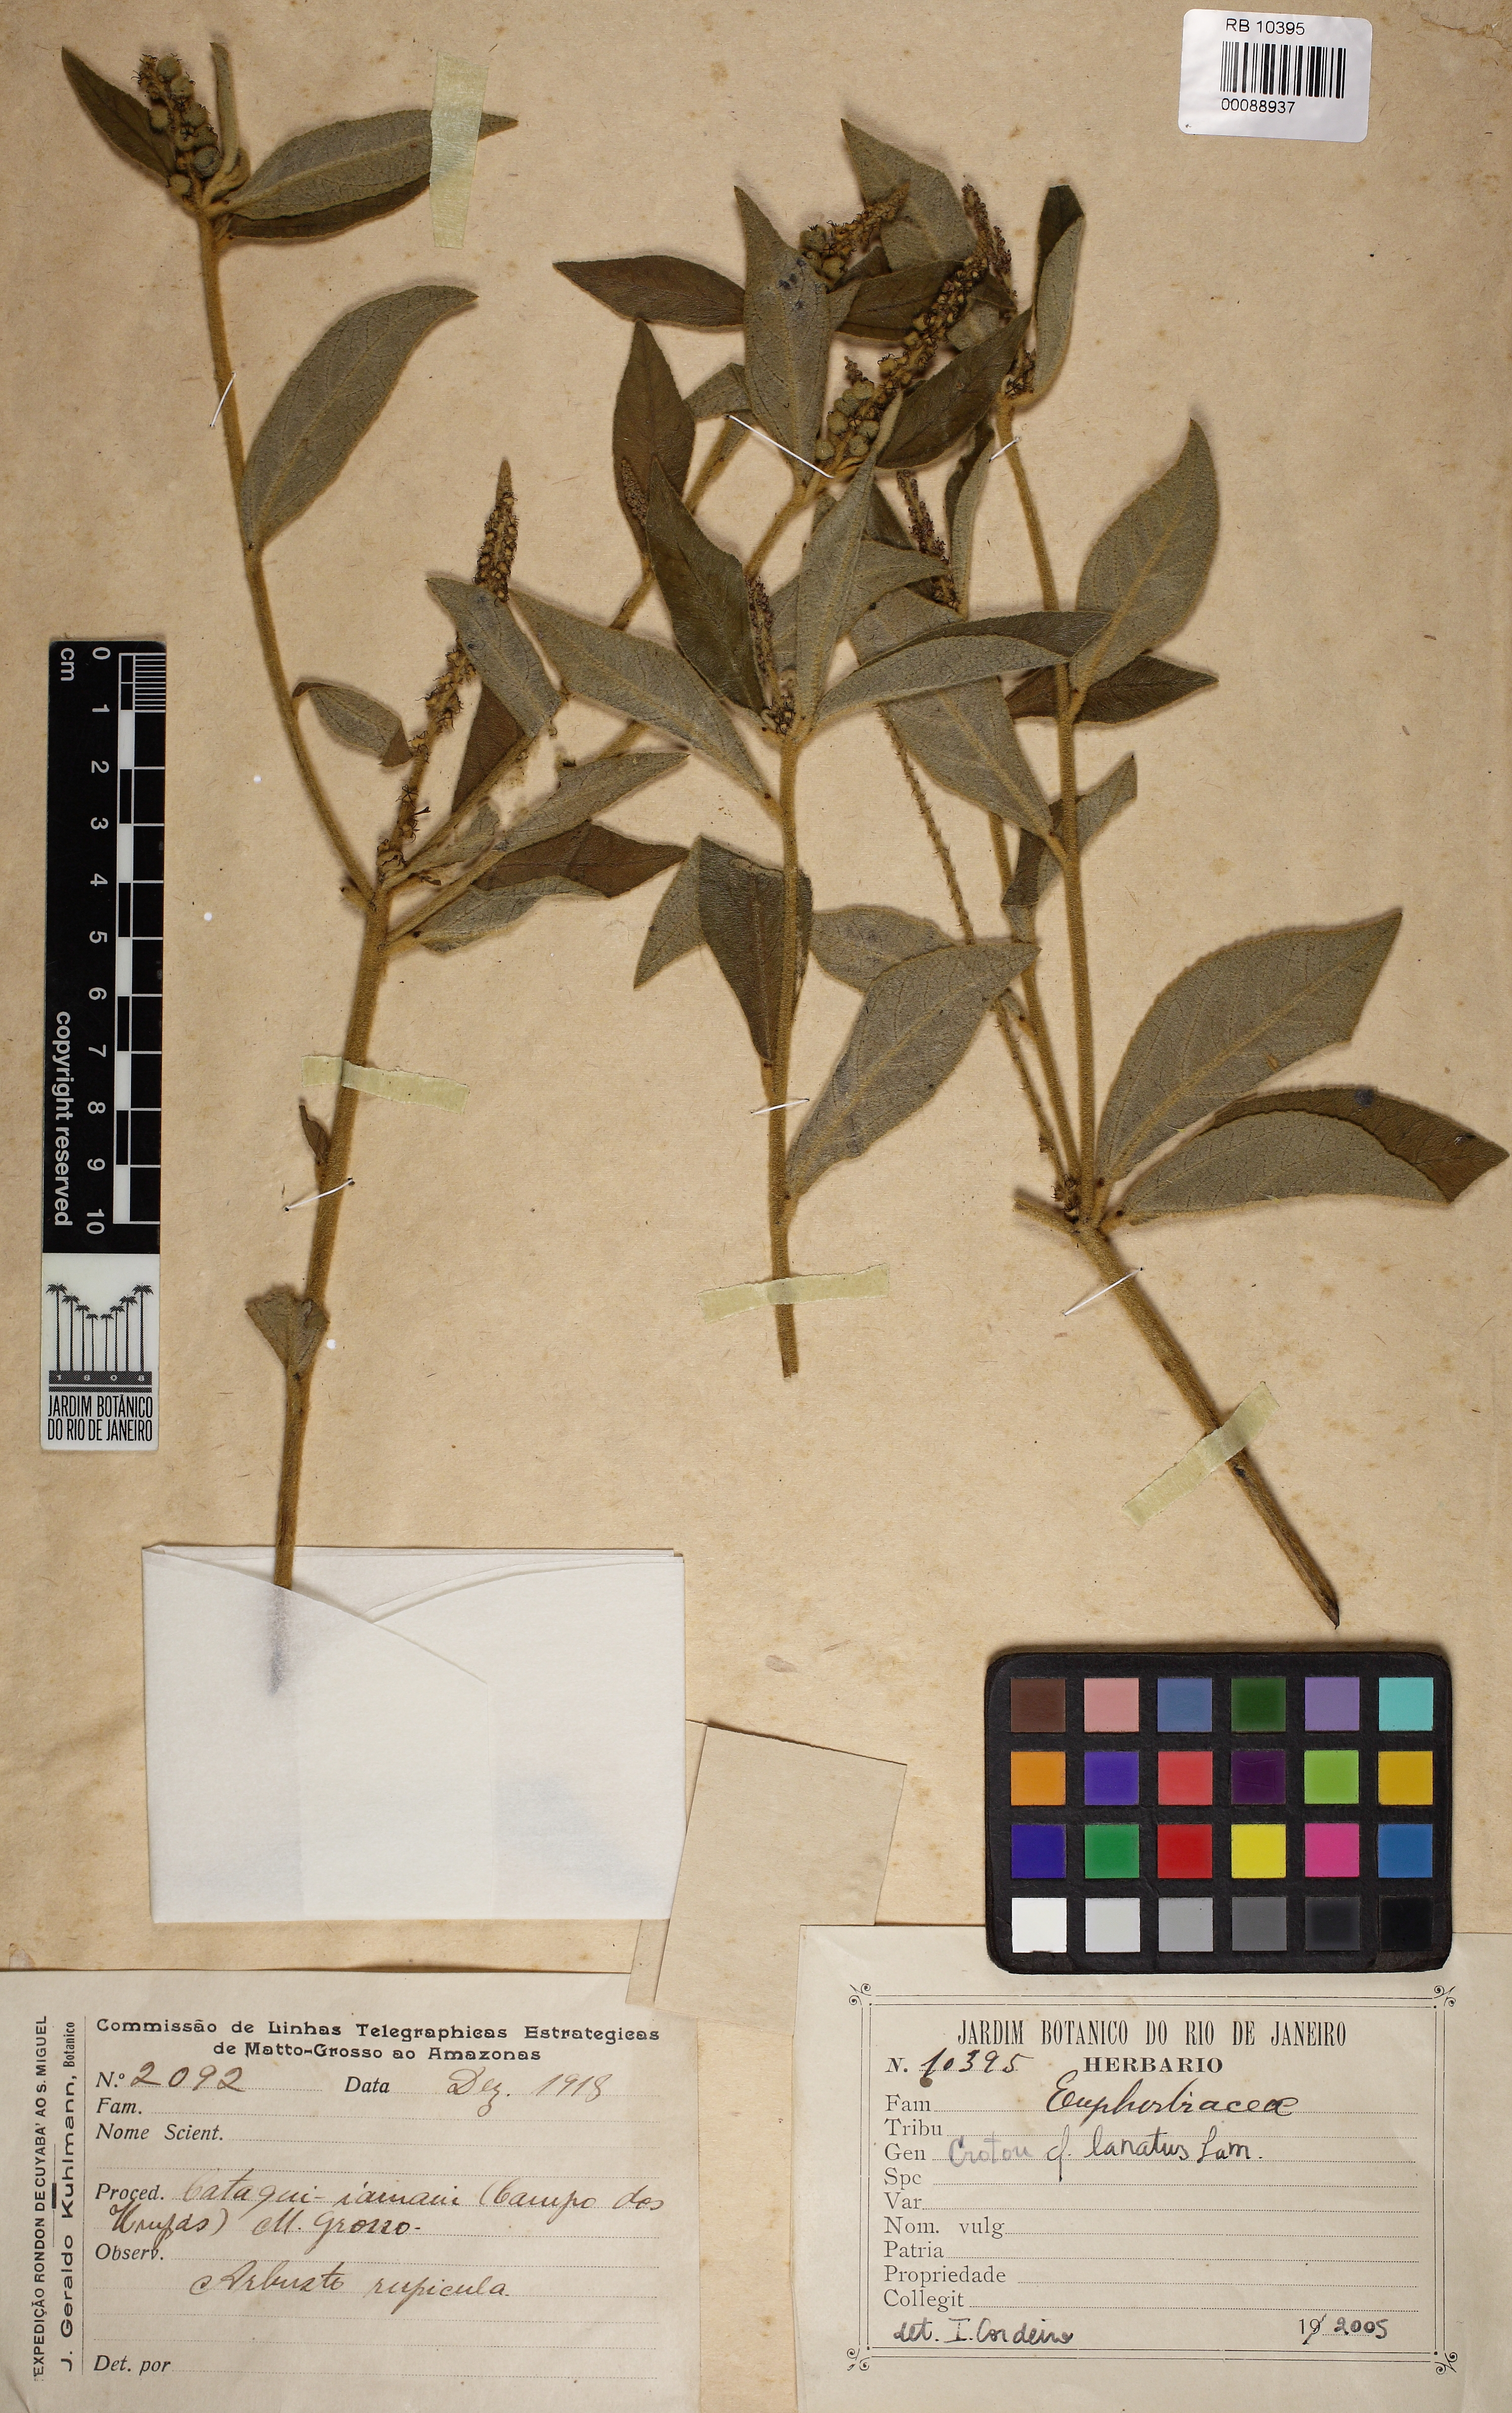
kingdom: Plantae
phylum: Tracheophyta
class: Magnoliopsida
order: Malpighiales
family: Euphorbiaceae
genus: Croton
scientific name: Croton lanatus
